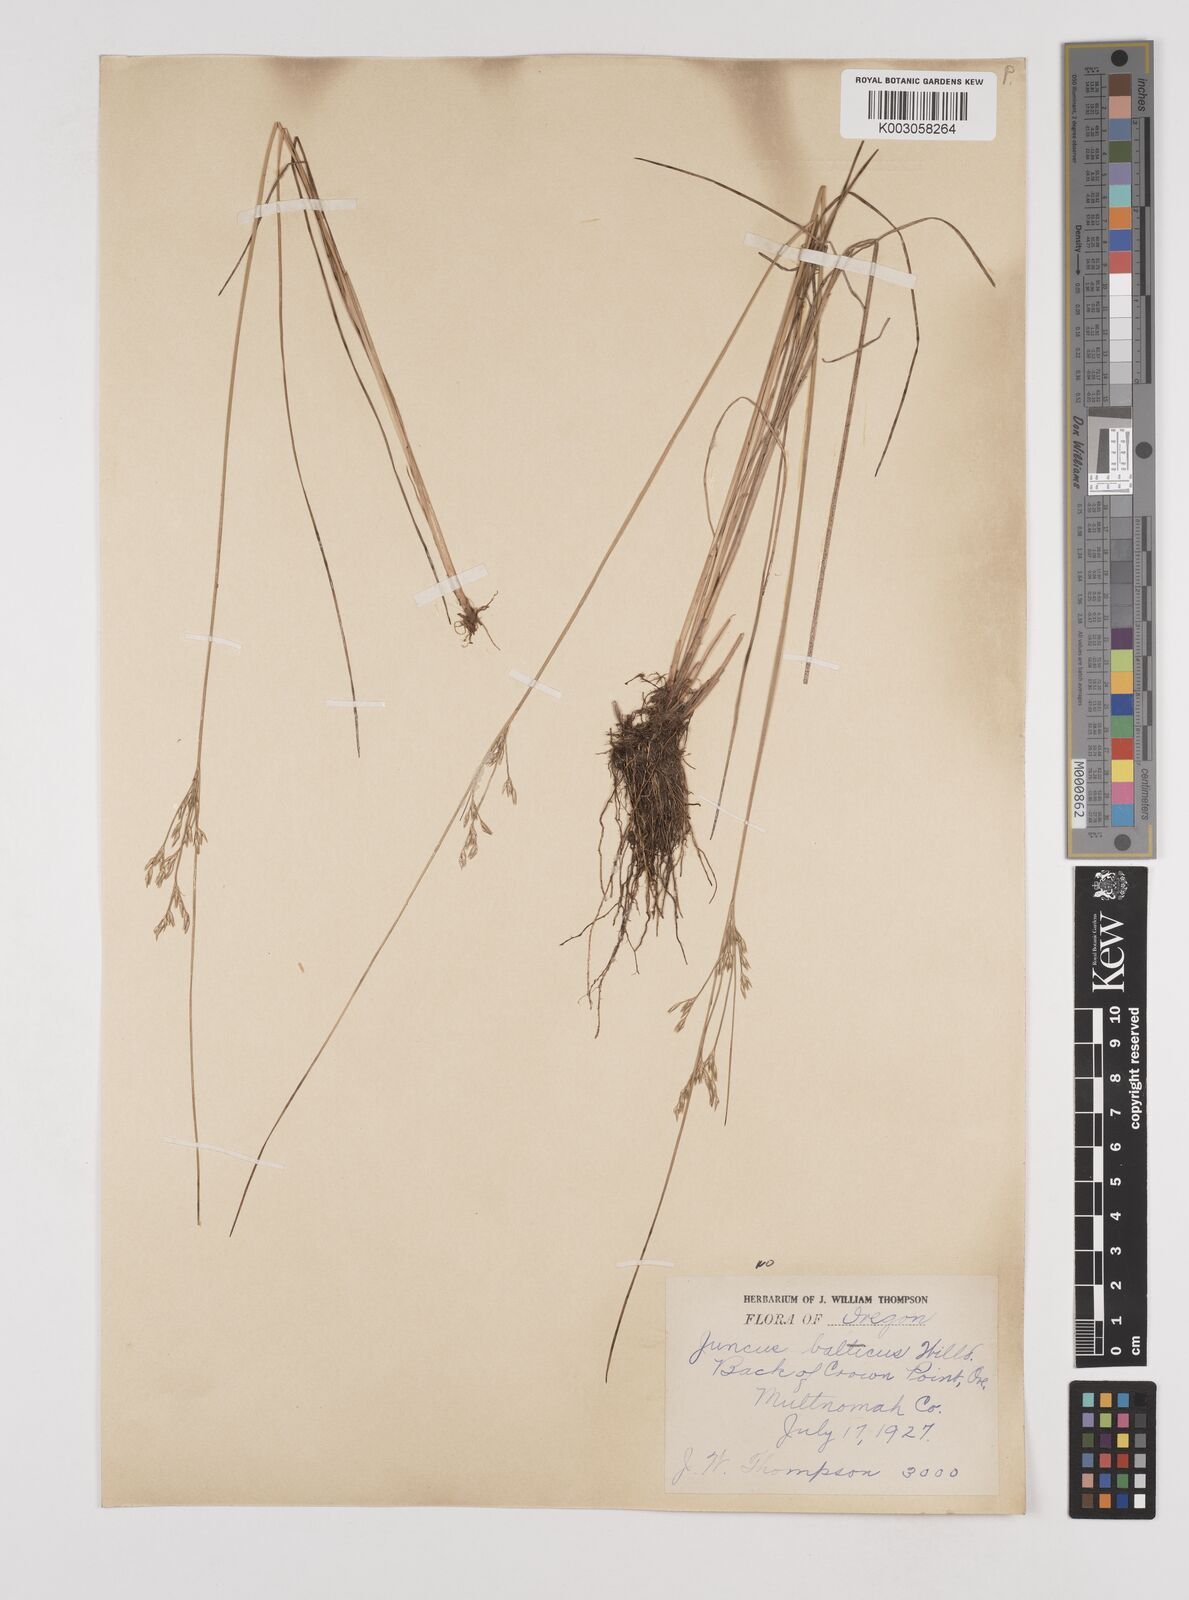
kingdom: Plantae
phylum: Tracheophyta
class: Liliopsida
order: Poales
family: Juncaceae
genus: Juncus
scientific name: Juncus
